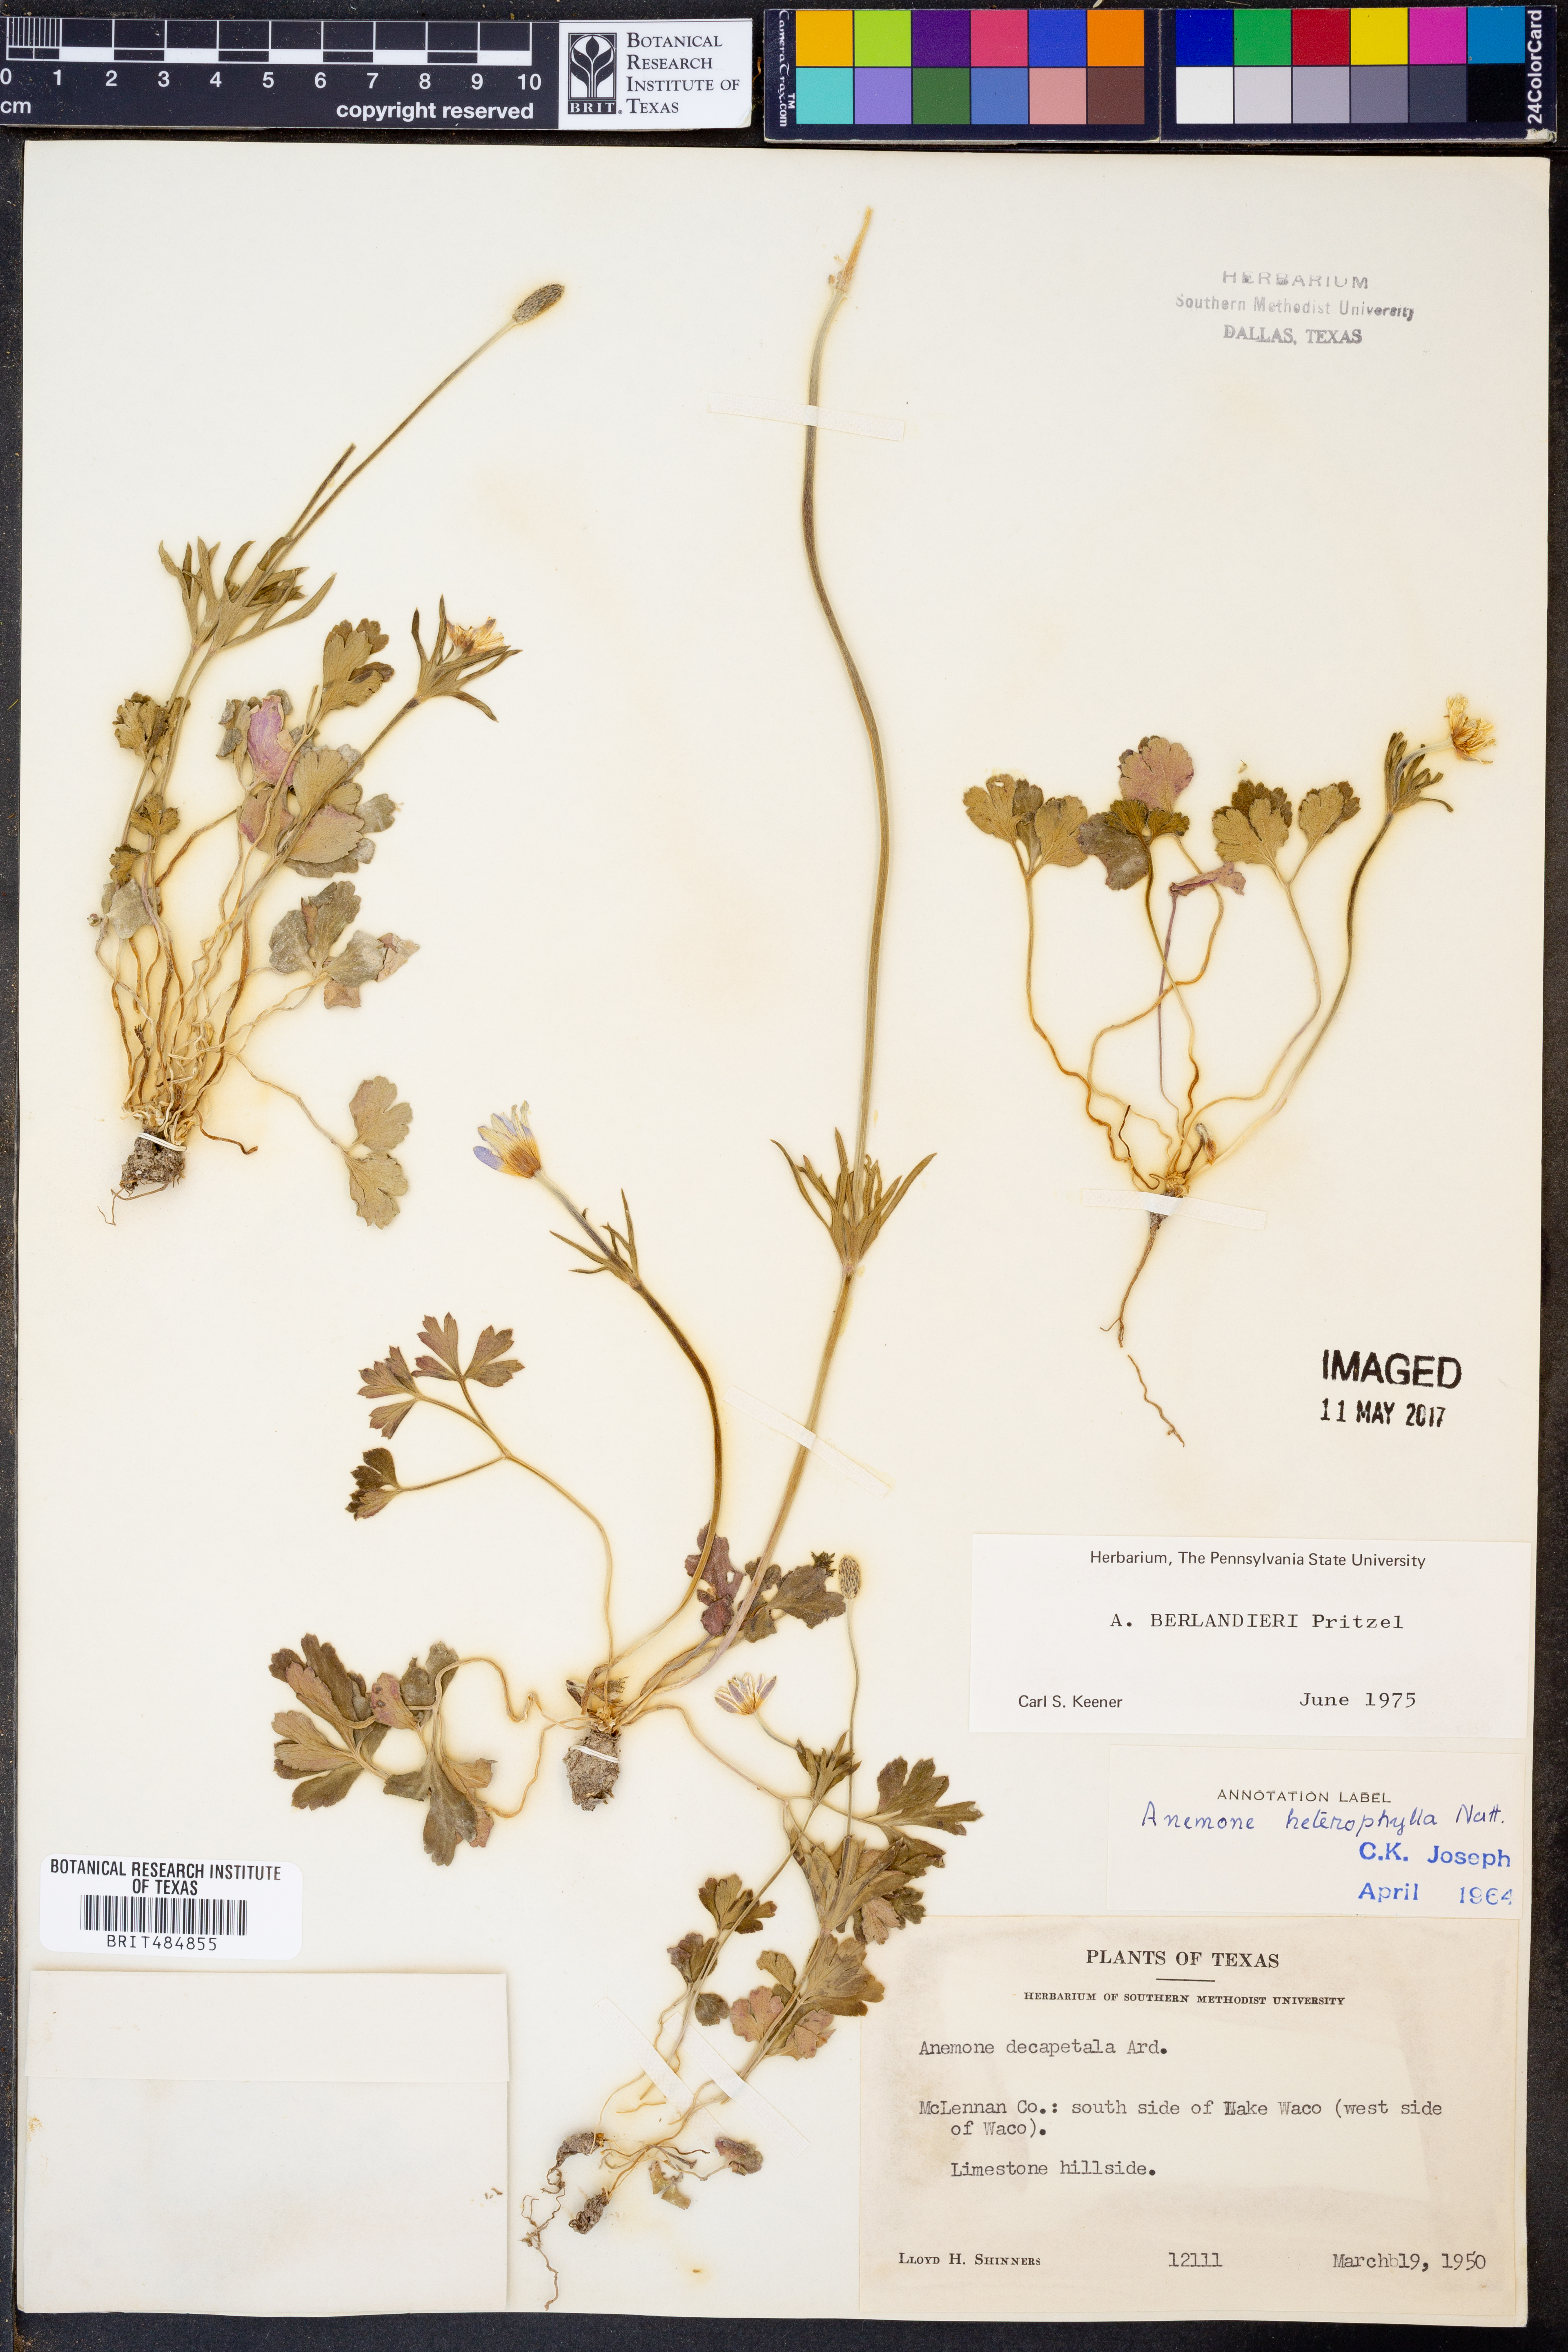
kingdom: Plantae
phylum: Tracheophyta
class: Magnoliopsida
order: Ranunculales
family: Ranunculaceae
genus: Anemone
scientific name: Anemone berlandieri
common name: Ten-petal anemone
